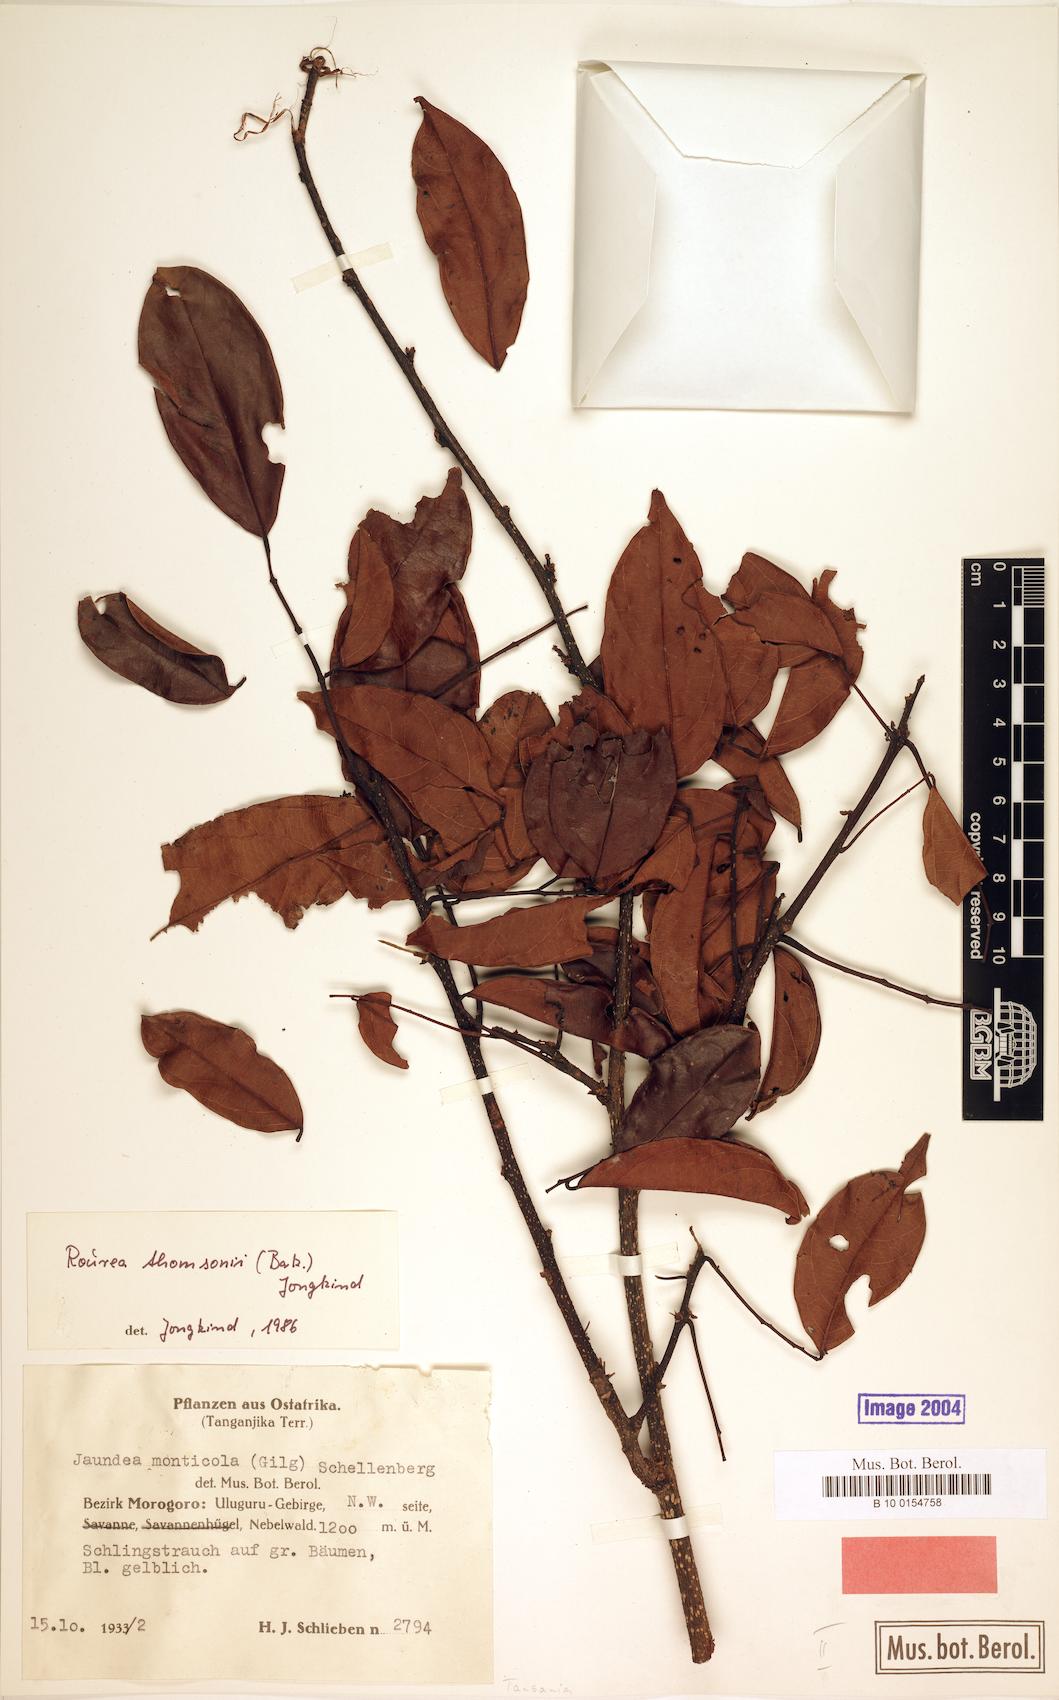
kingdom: Plantae
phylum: Tracheophyta
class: Magnoliopsida
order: Oxalidales
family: Connaraceae
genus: Rourea
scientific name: Rourea thomsonii
